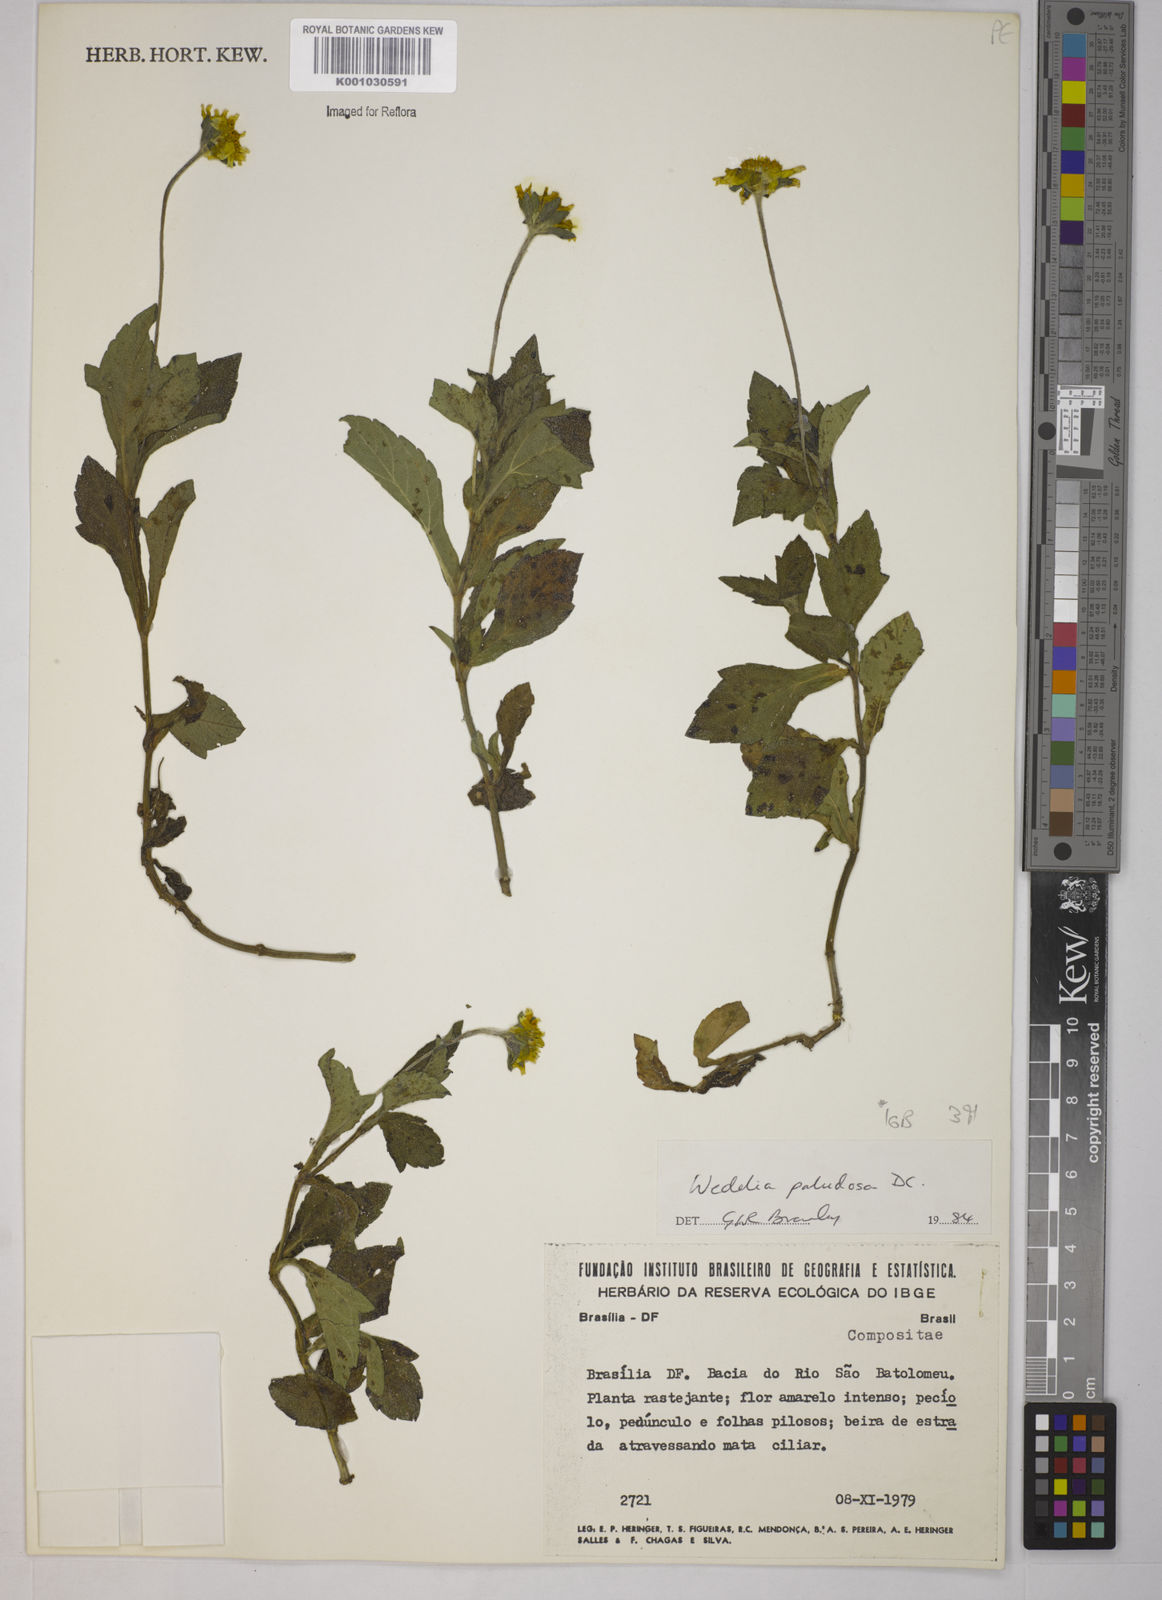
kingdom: Plantae
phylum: Tracheophyta
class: Magnoliopsida
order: Asterales
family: Asteraceae
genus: Sphagneticola
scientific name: Sphagneticola trilobata
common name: Bay biscayne creeping-oxeye
